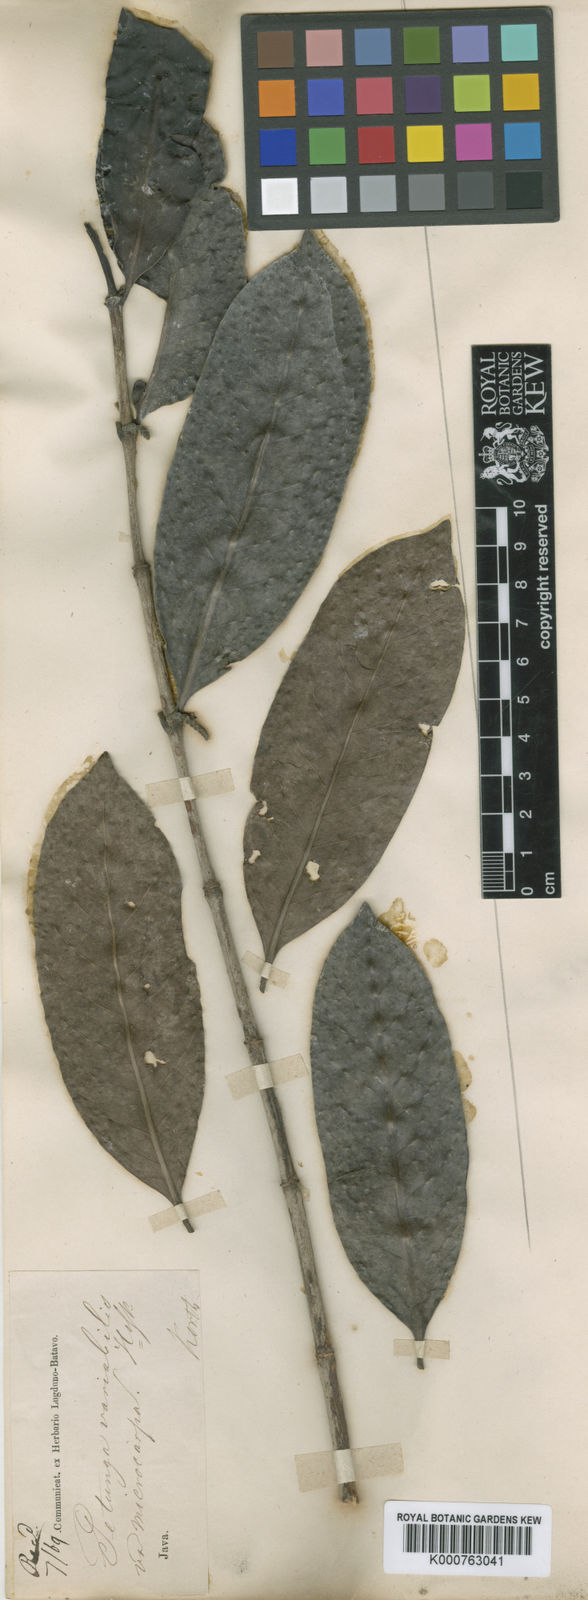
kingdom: Plantae
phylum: Tracheophyta
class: Magnoliopsida
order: Gentianales
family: Rubiaceae
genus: Hypobathrum
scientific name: Hypobathrum racemosum
